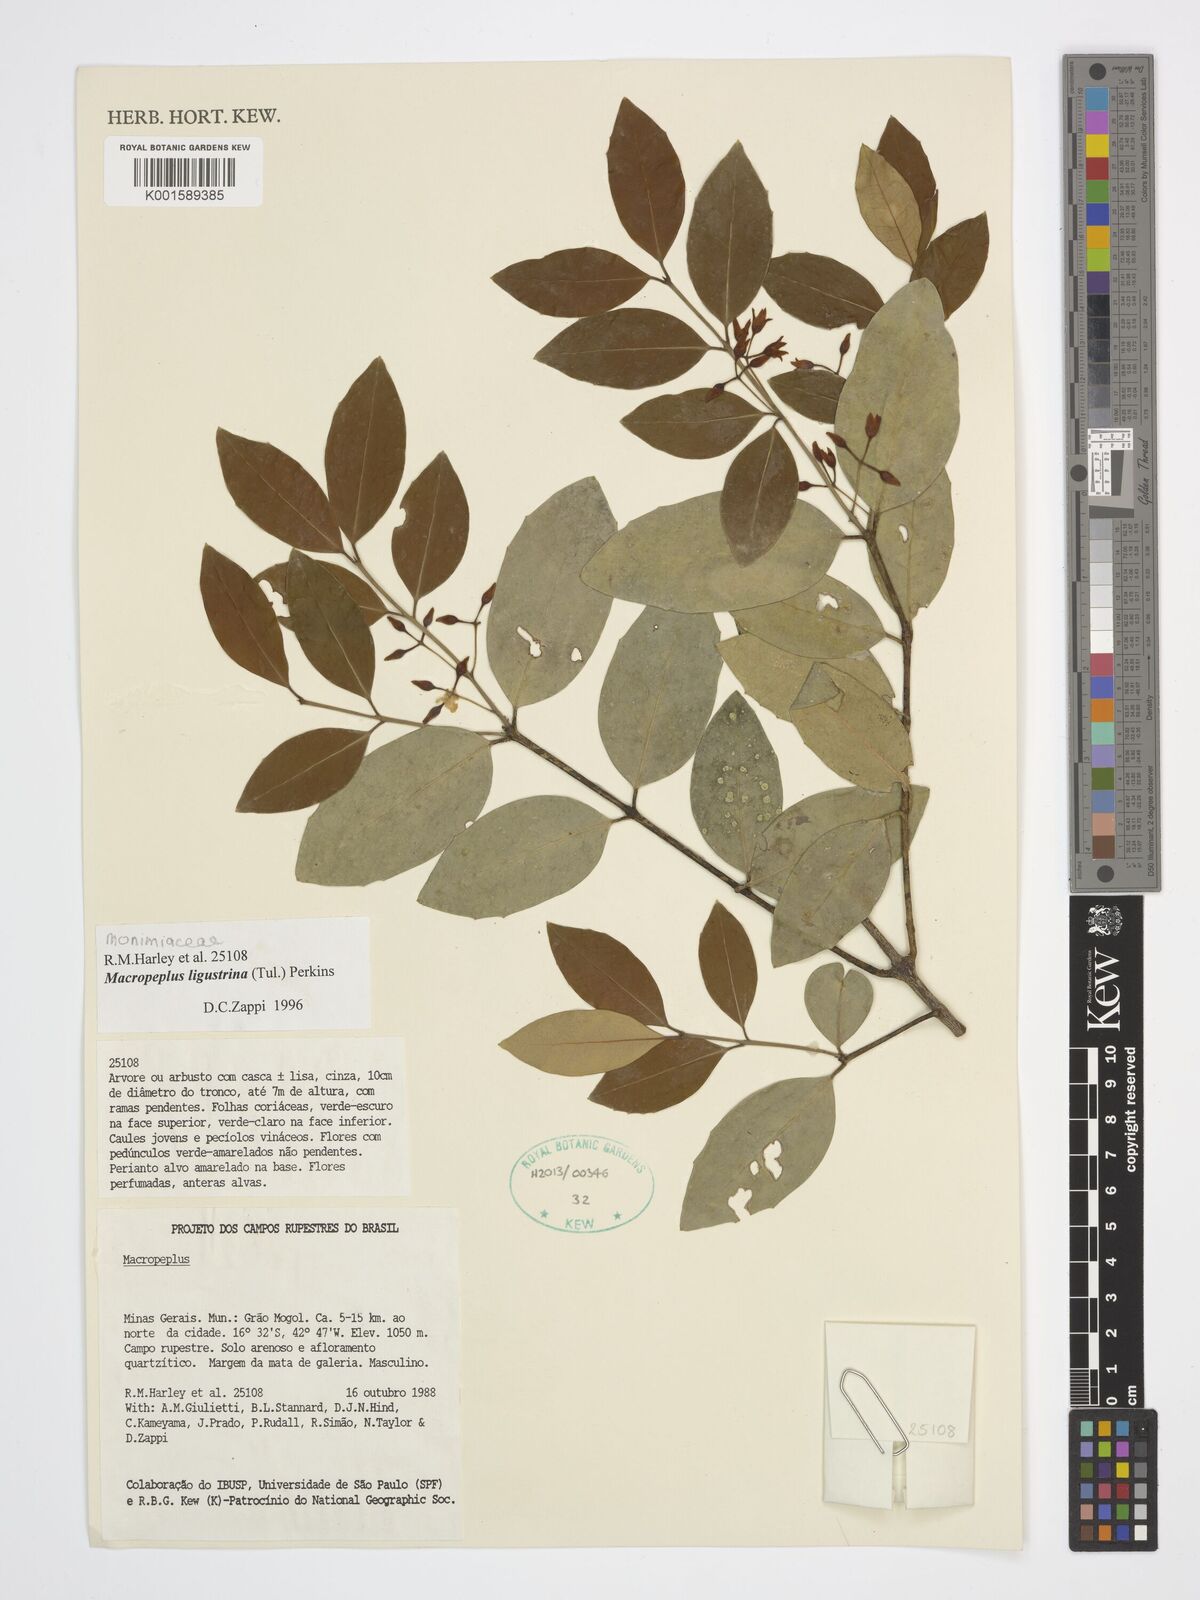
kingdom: Plantae
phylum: Tracheophyta
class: Magnoliopsida
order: Laurales
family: Monimiaceae
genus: Macropeplus
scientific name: Macropeplus ligustrinus
